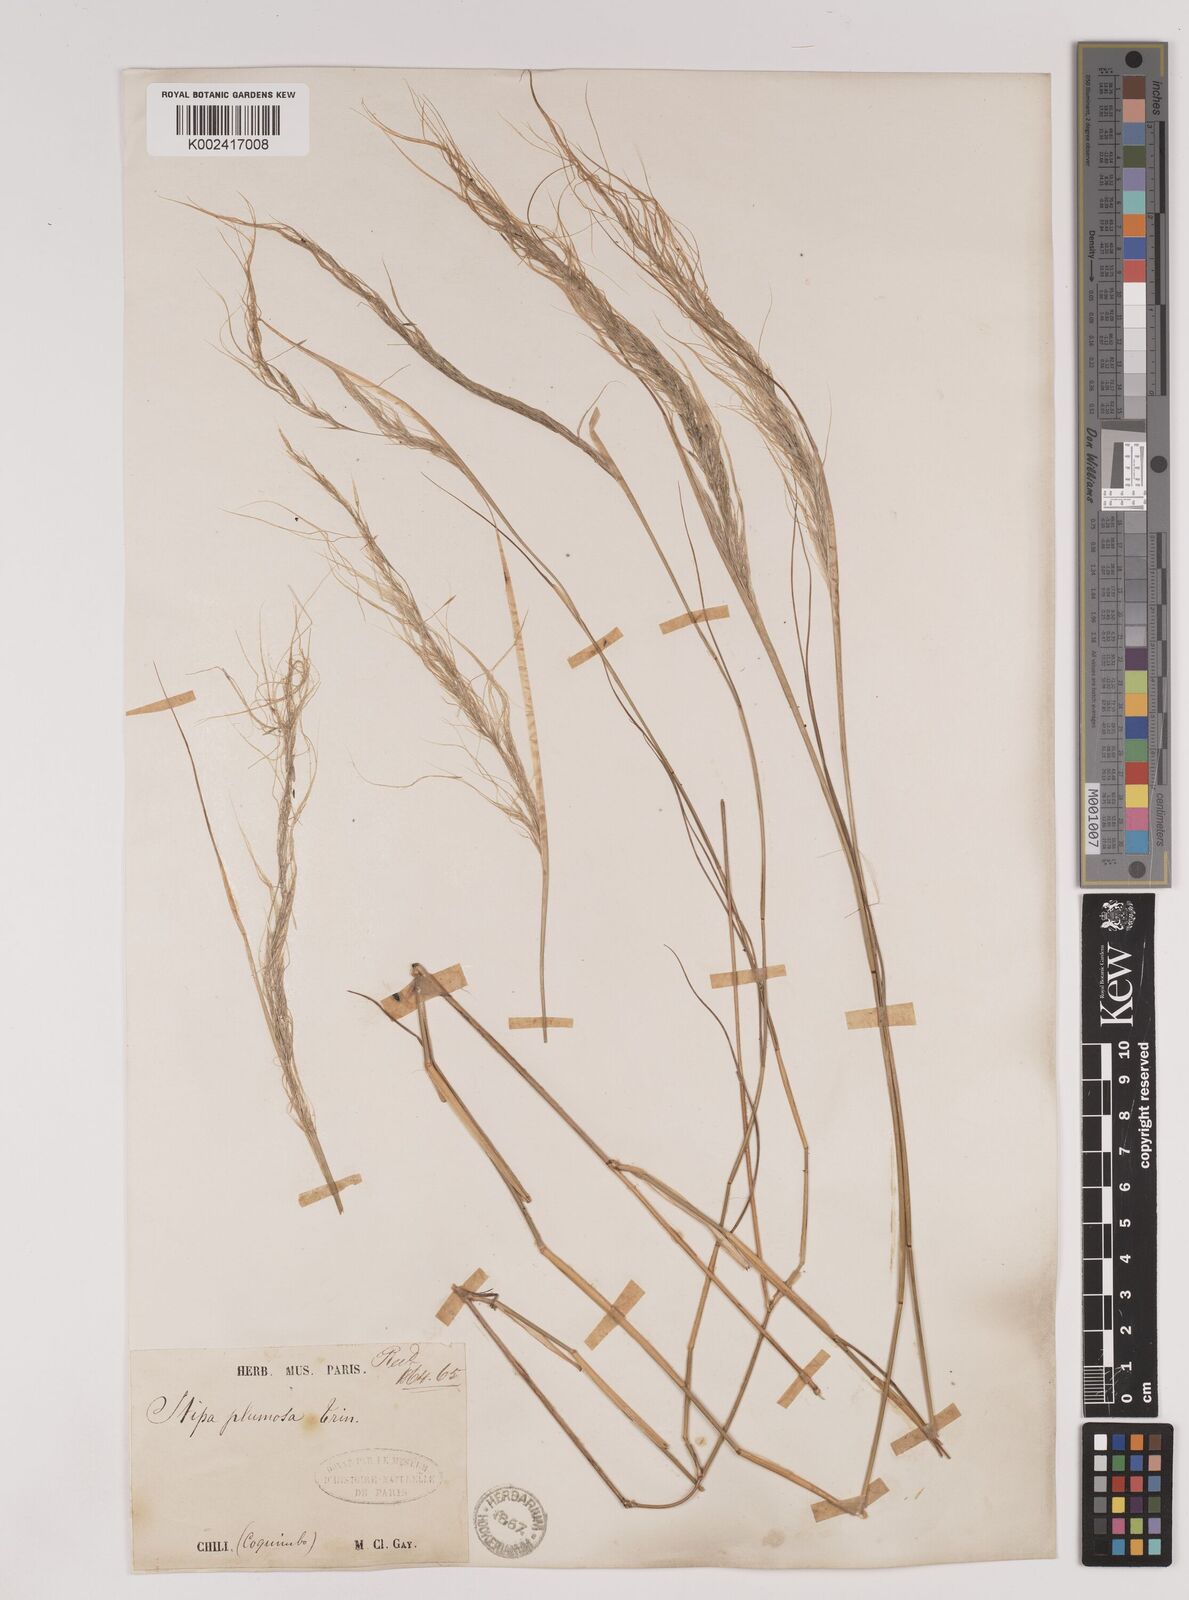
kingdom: Plantae
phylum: Tracheophyta
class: Liliopsida
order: Poales
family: Poaceae
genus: Stipa
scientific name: Stipa plumosa
